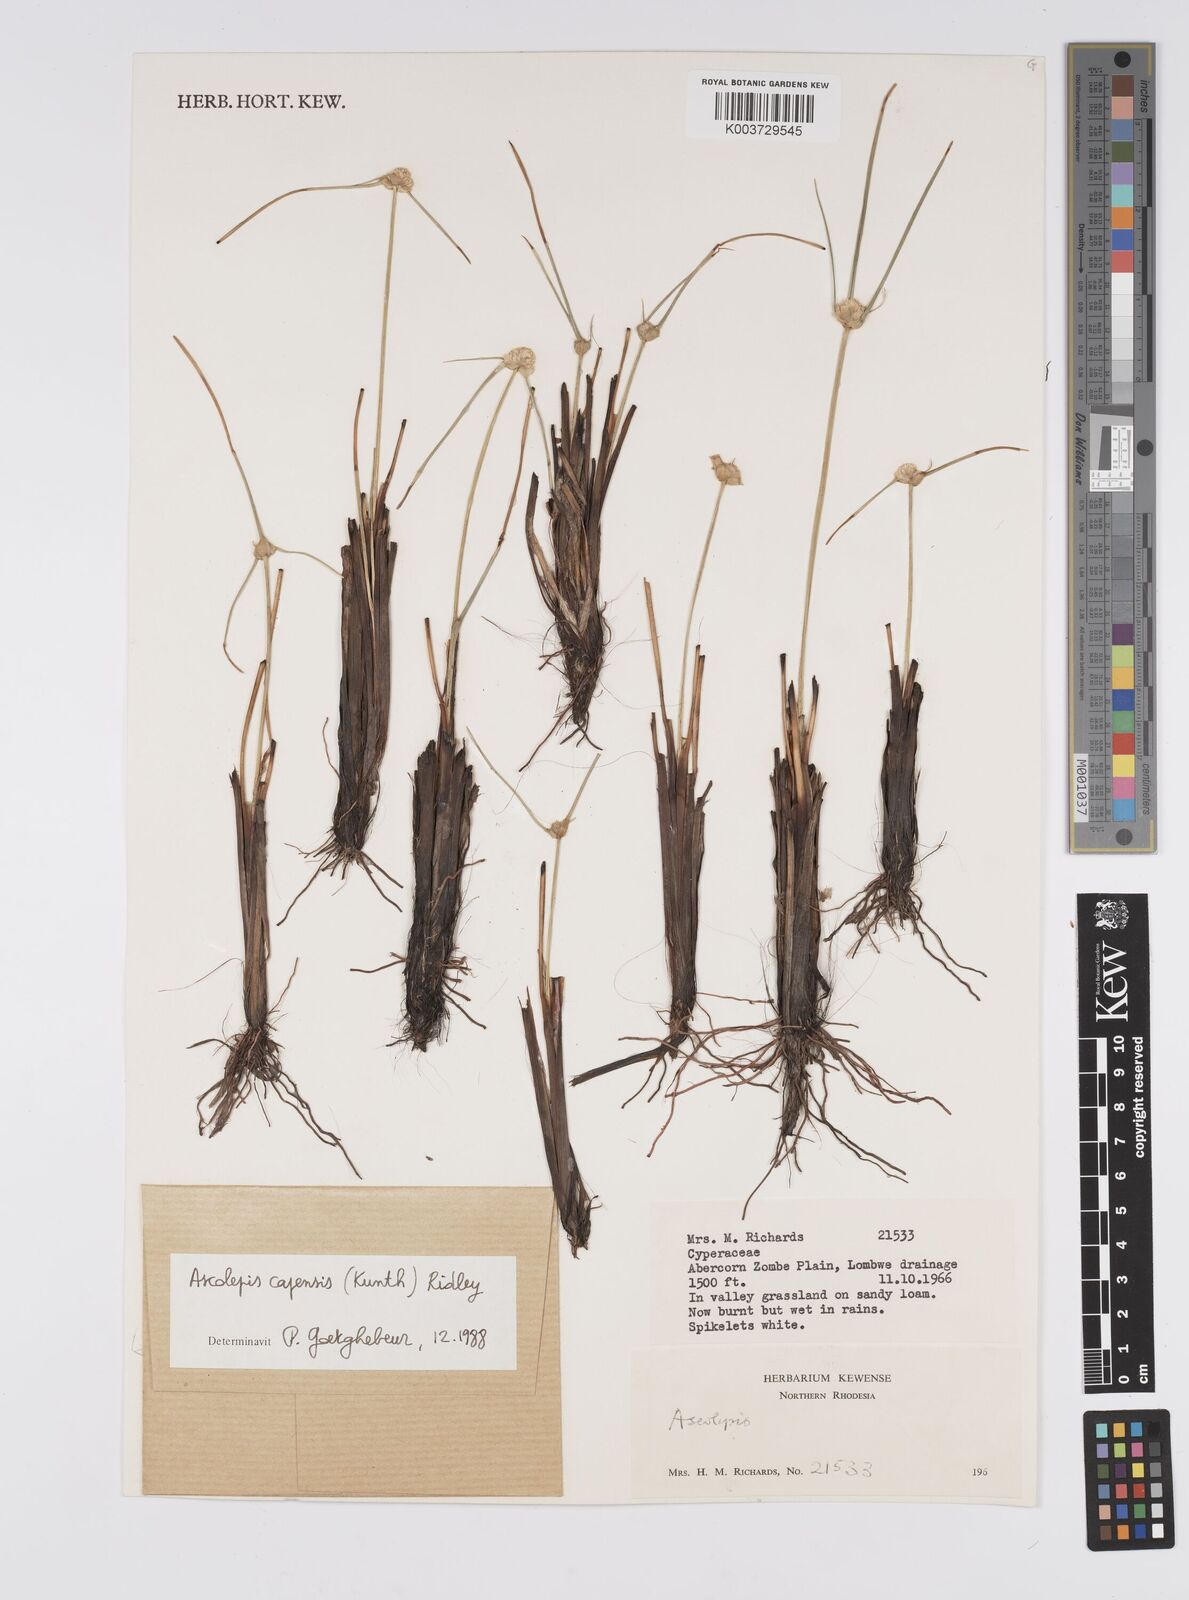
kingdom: Plantae
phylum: Tracheophyta
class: Liliopsida
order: Poales
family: Cyperaceae
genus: Cyperus
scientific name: Cyperus ascocapensis
